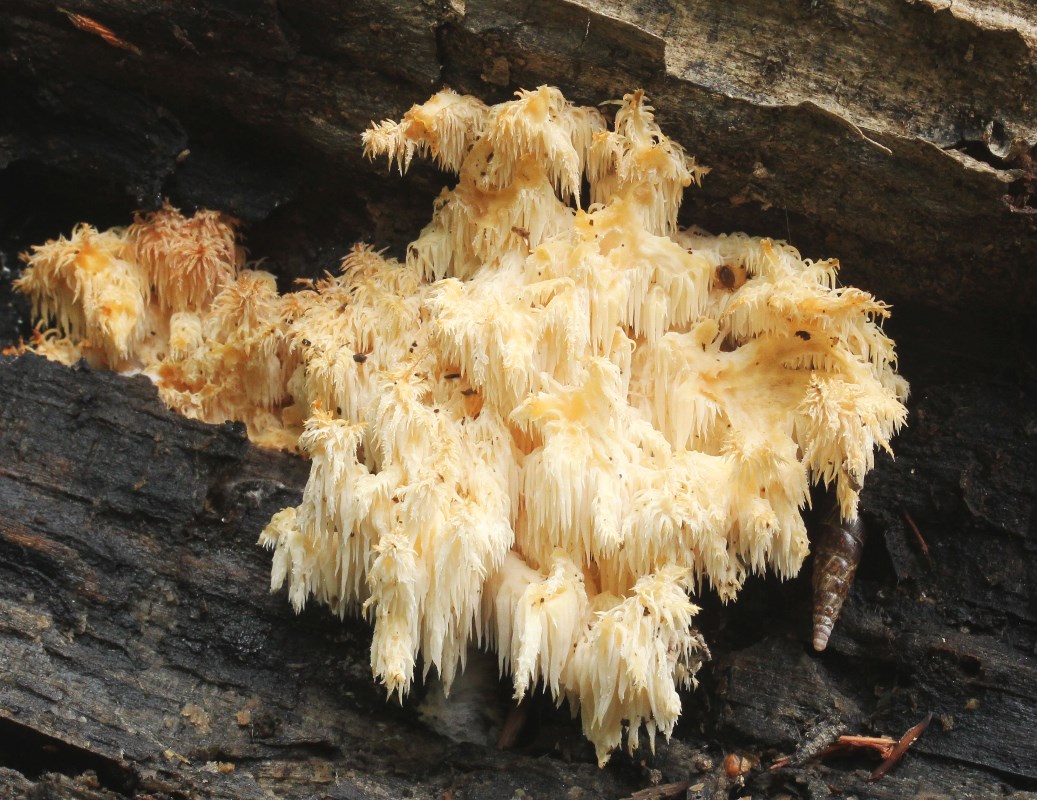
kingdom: Fungi
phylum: Basidiomycota
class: Agaricomycetes
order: Russulales
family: Hericiaceae
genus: Hericium
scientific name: Hericium coralloides
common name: koralpigsvamp
